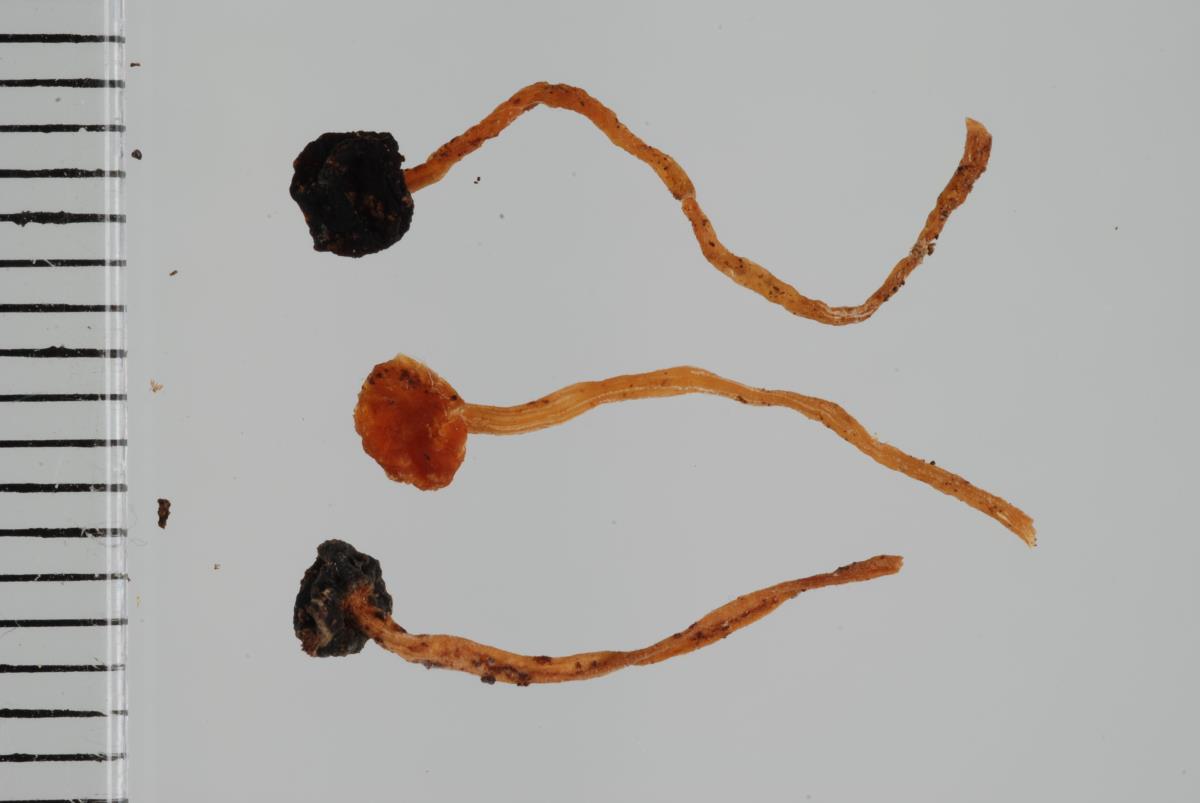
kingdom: Chromista
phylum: Oomycota
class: Peronosporea
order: Peronosporales
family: Peronosporaceae
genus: Peronospora
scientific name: Peronospora scleranthi
